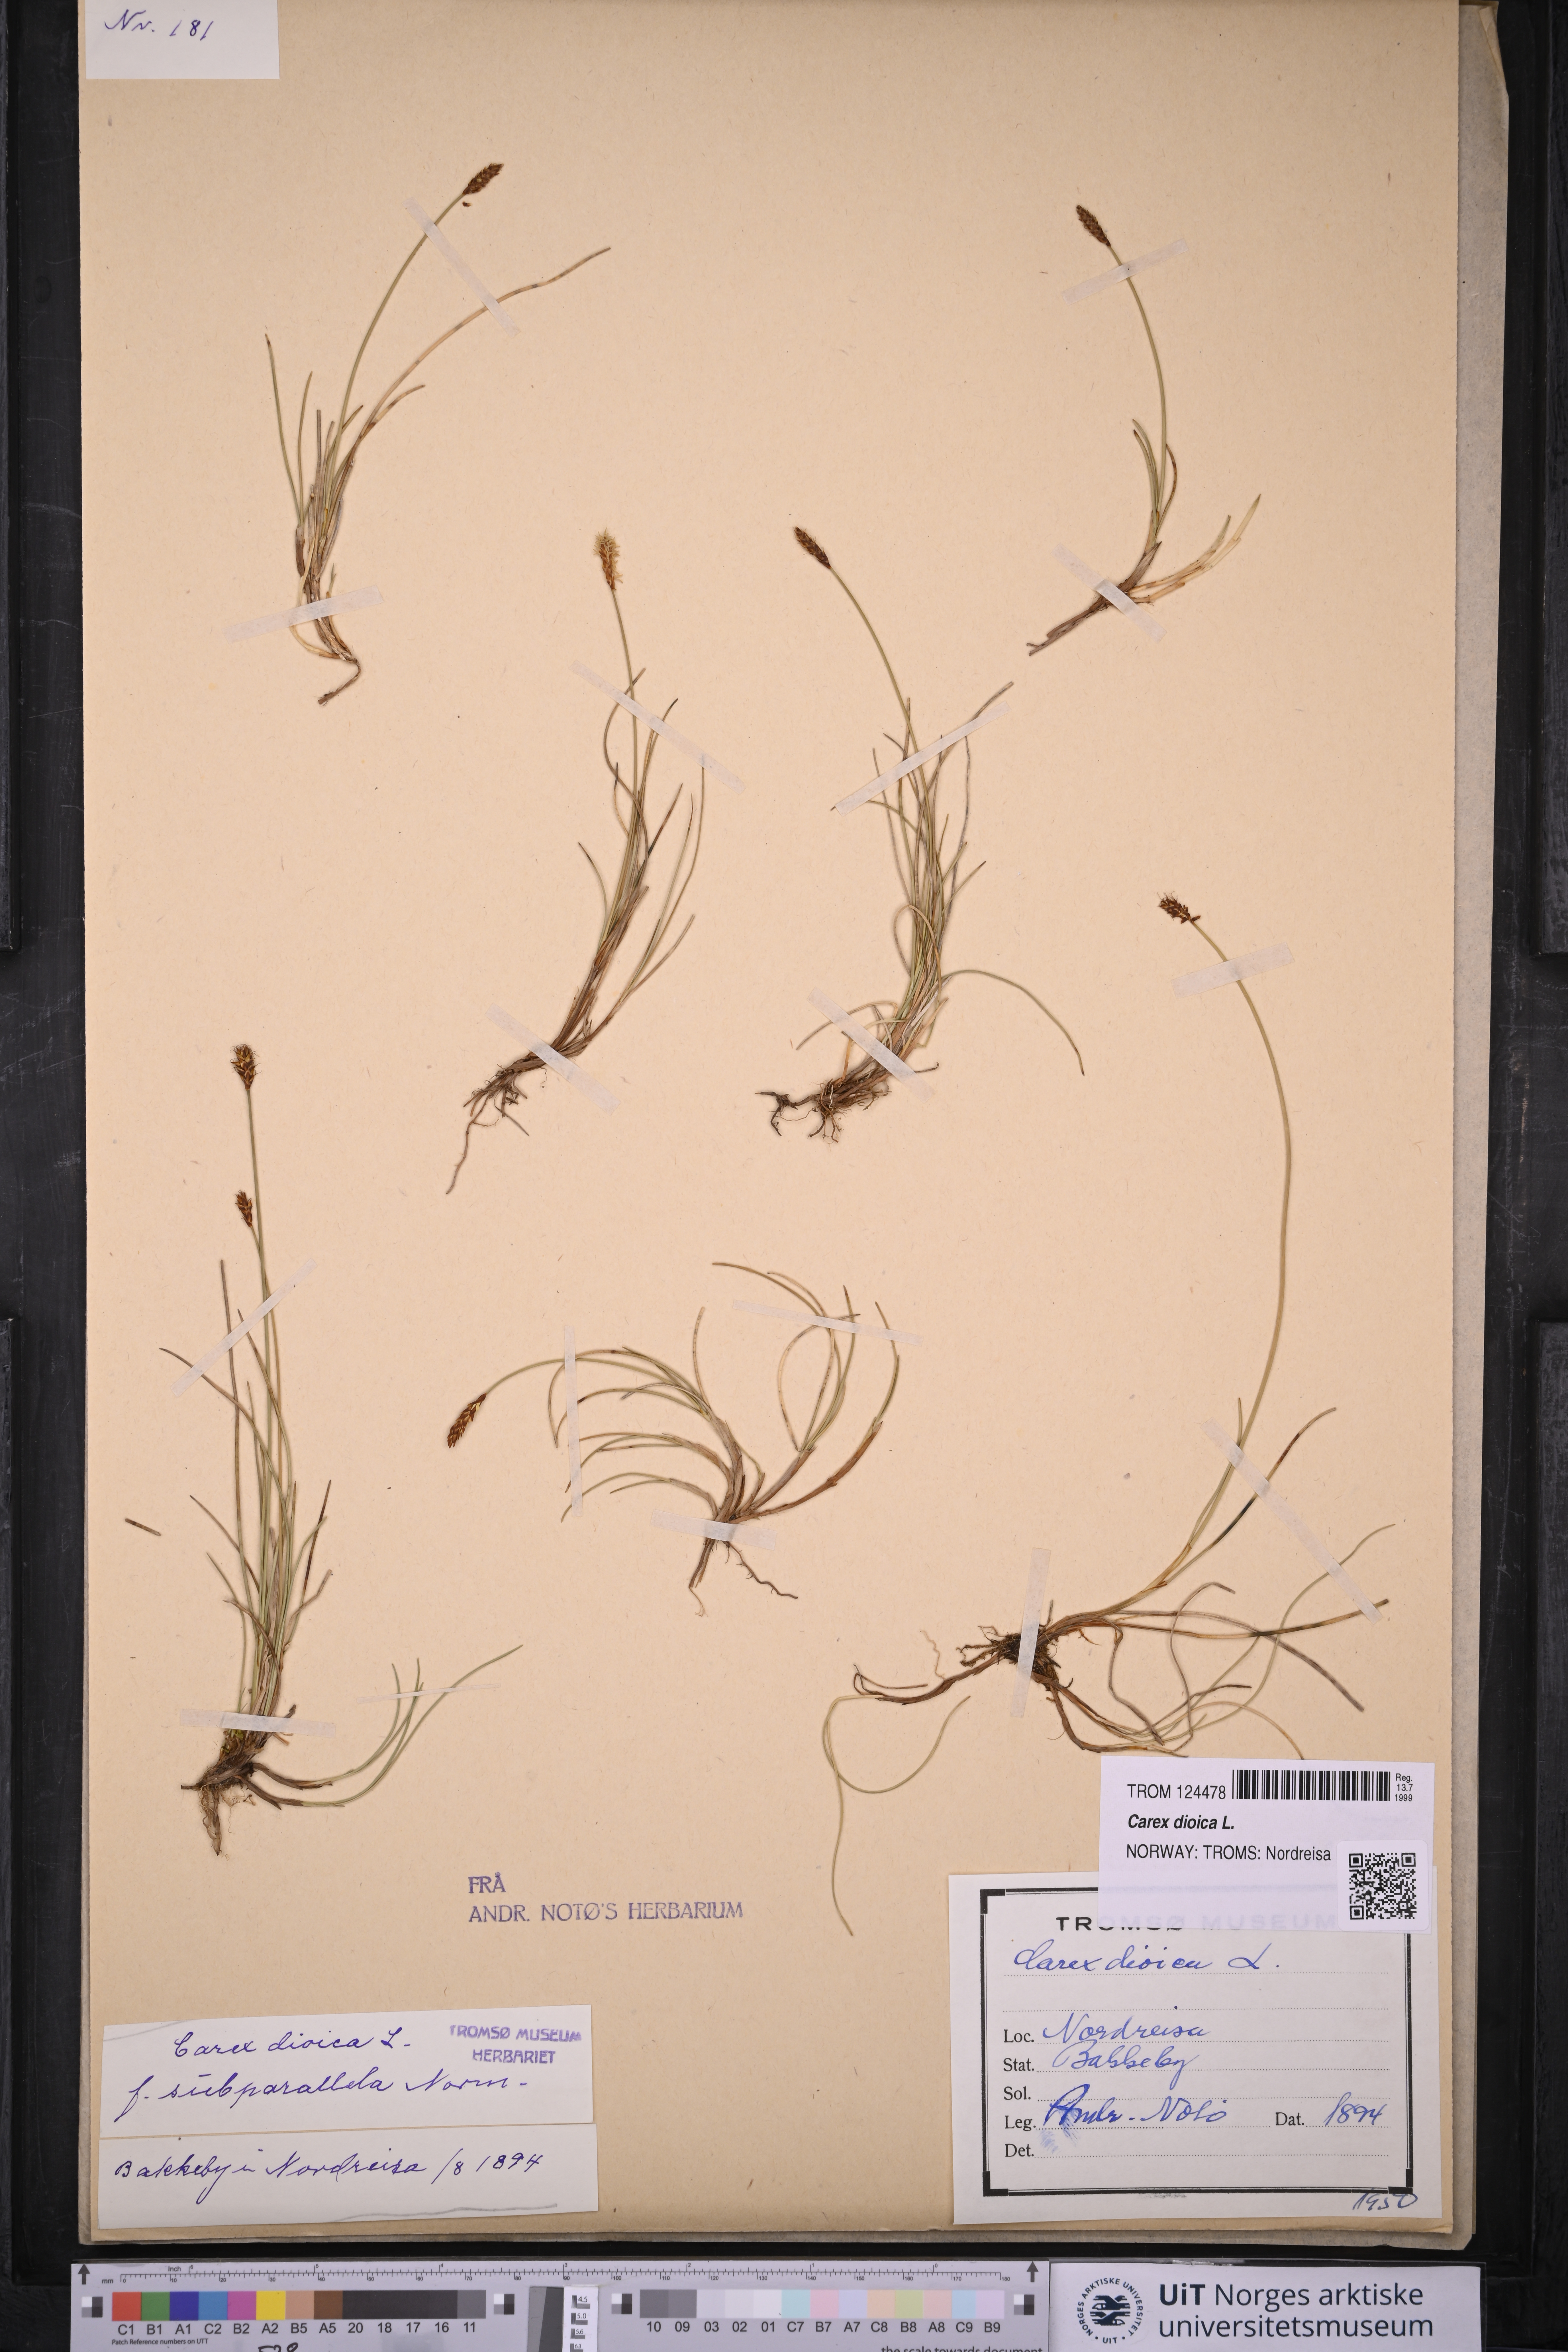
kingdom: Plantae
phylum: Tracheophyta
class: Liliopsida
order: Poales
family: Cyperaceae
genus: Carex
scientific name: Carex dioica
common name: Dioecious sedge
